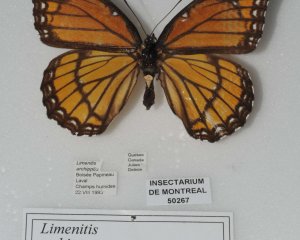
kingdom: Animalia
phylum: Arthropoda
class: Insecta
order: Lepidoptera
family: Nymphalidae
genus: Limenitis
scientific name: Limenitis archippus
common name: Viceroy
